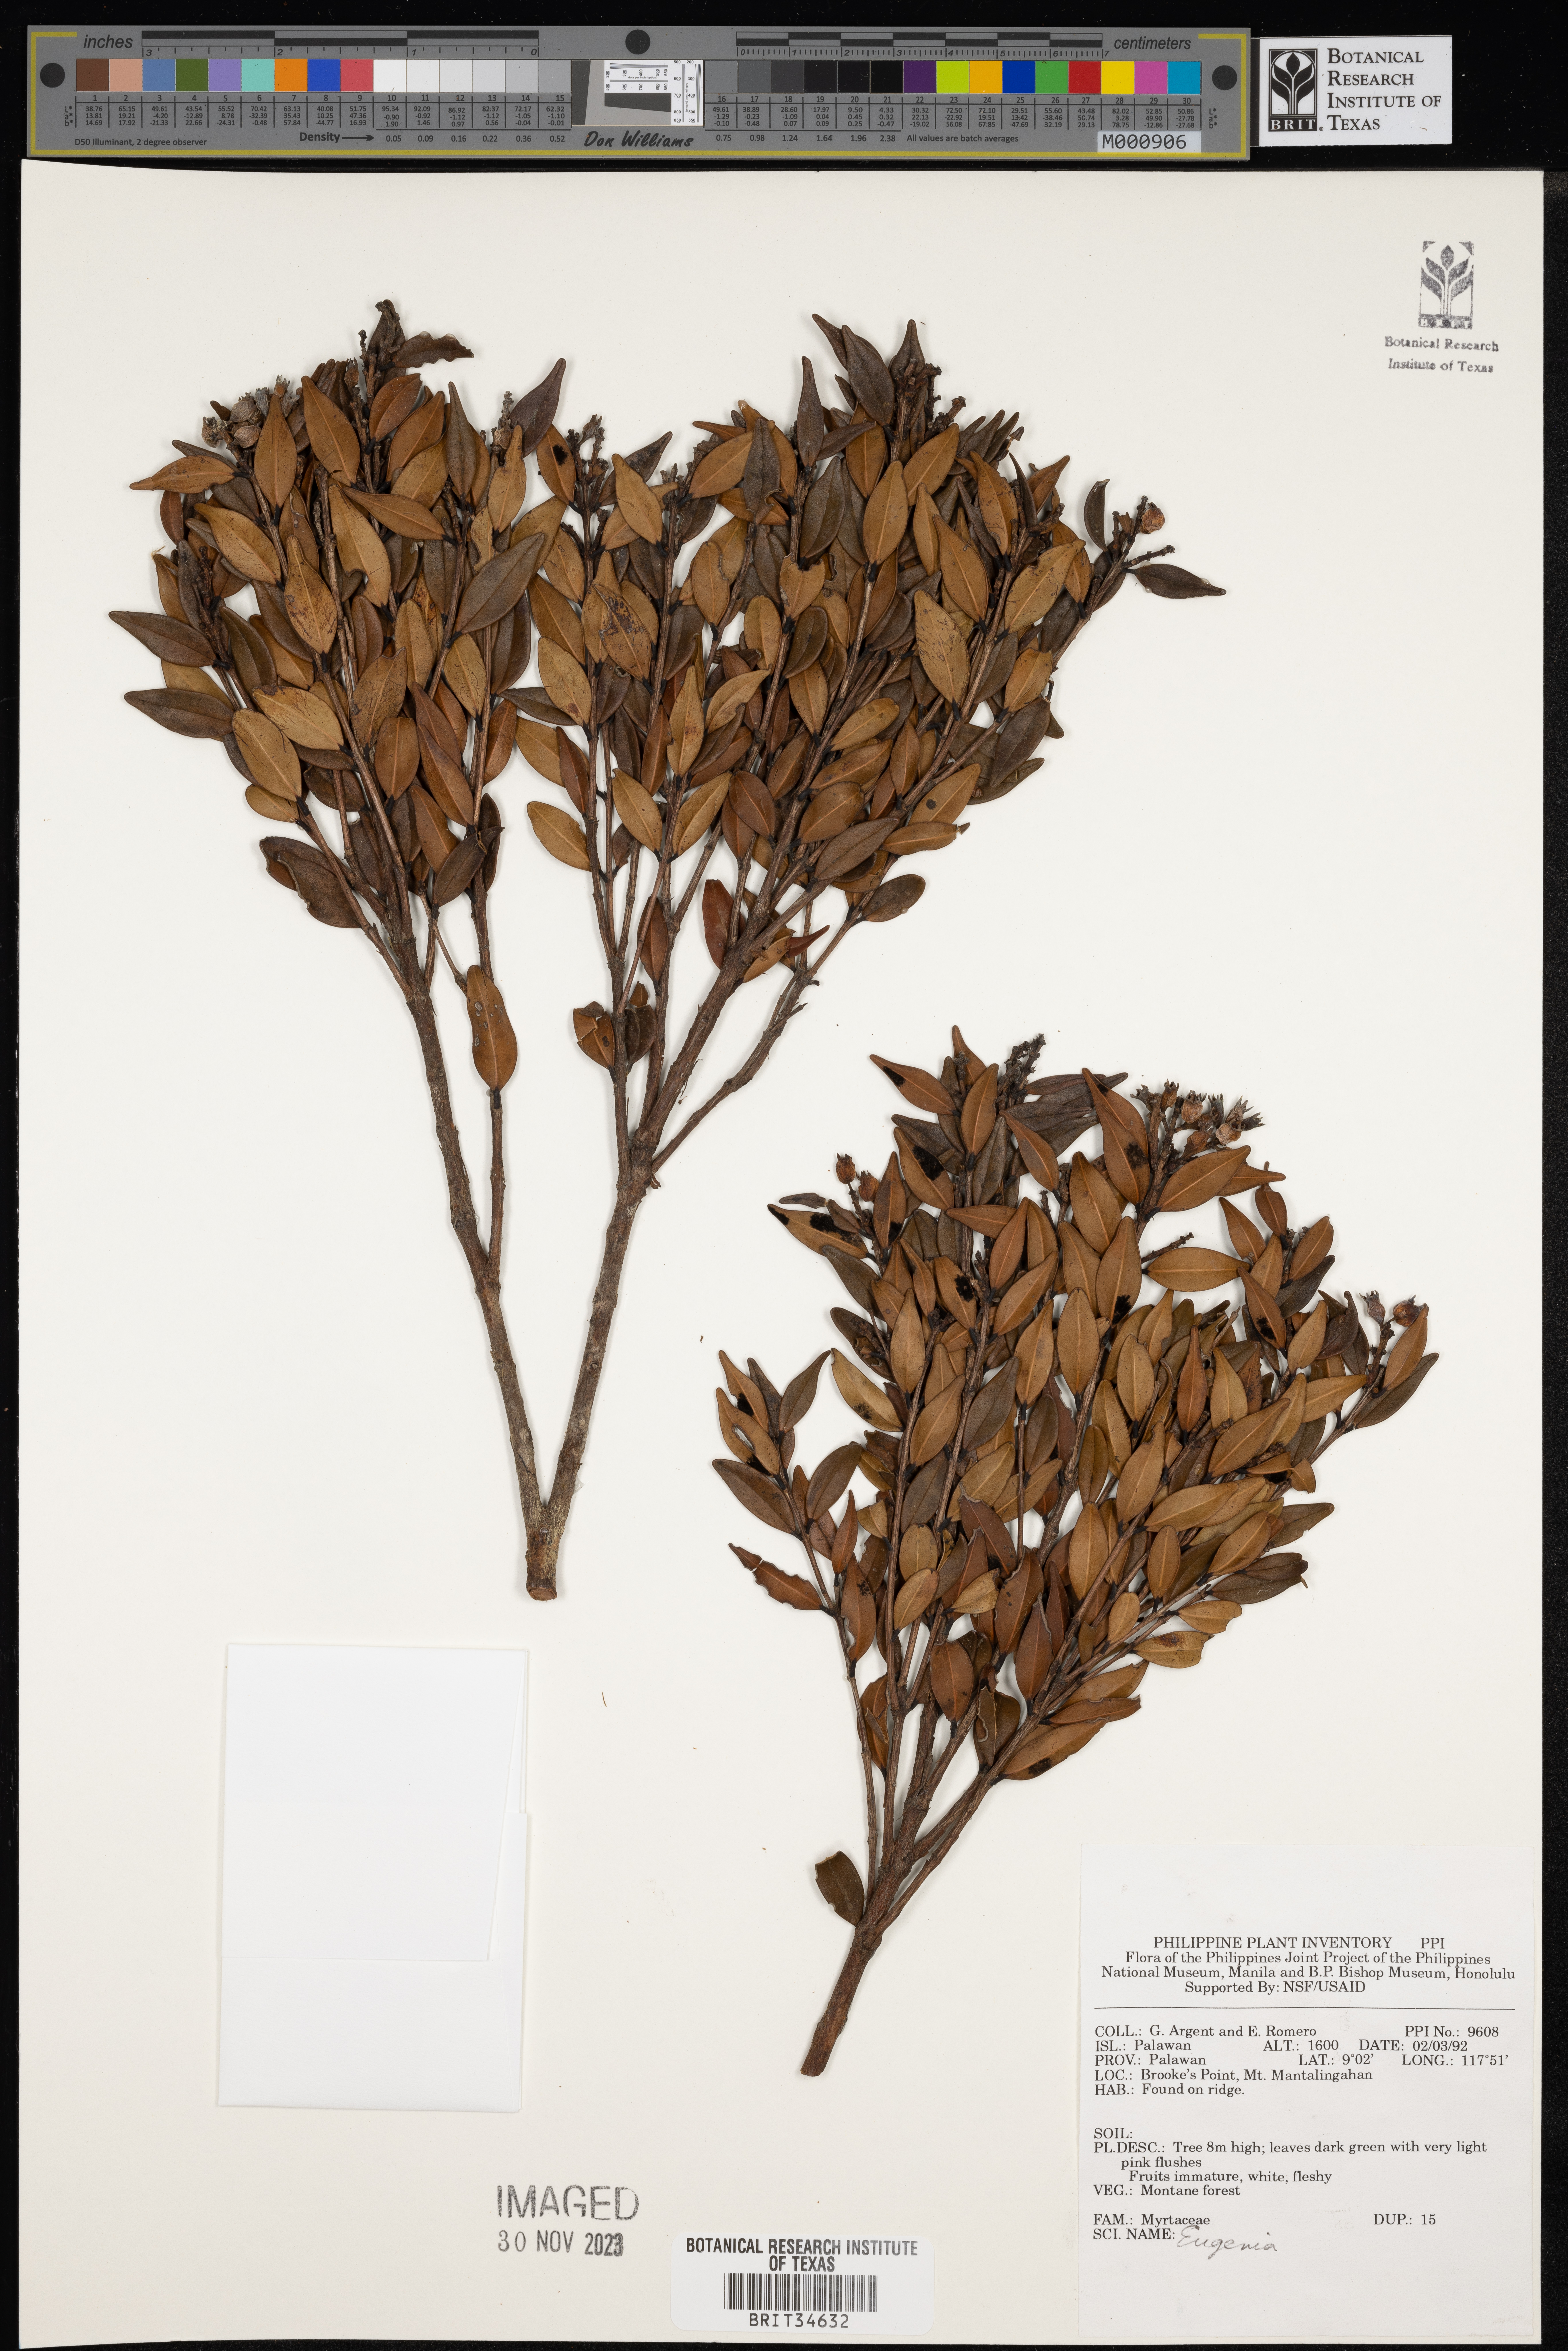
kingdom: Plantae
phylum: Tracheophyta
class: Magnoliopsida
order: Myrtales
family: Myrtaceae
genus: Eugenia
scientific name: Eugenia
